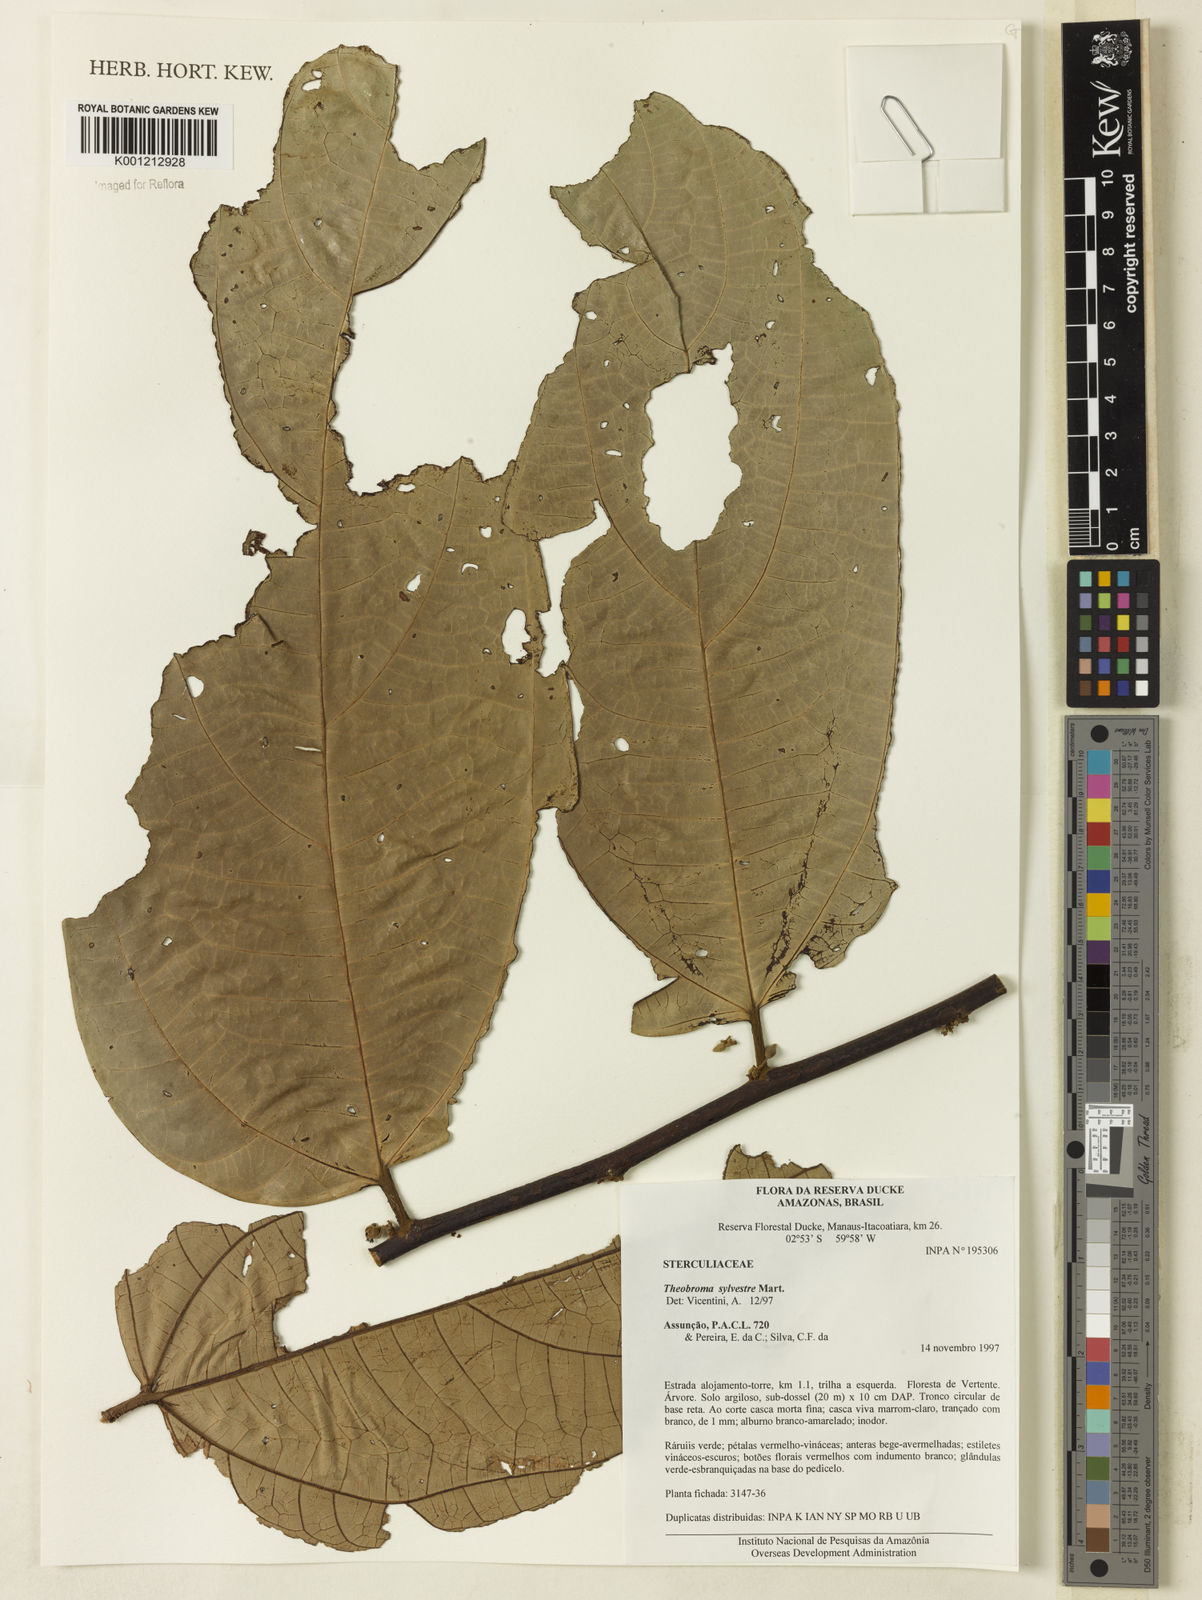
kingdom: Plantae
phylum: Tracheophyta
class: Magnoliopsida
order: Malvales
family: Malvaceae
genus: Theobroma
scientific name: Theobroma sylvestre
